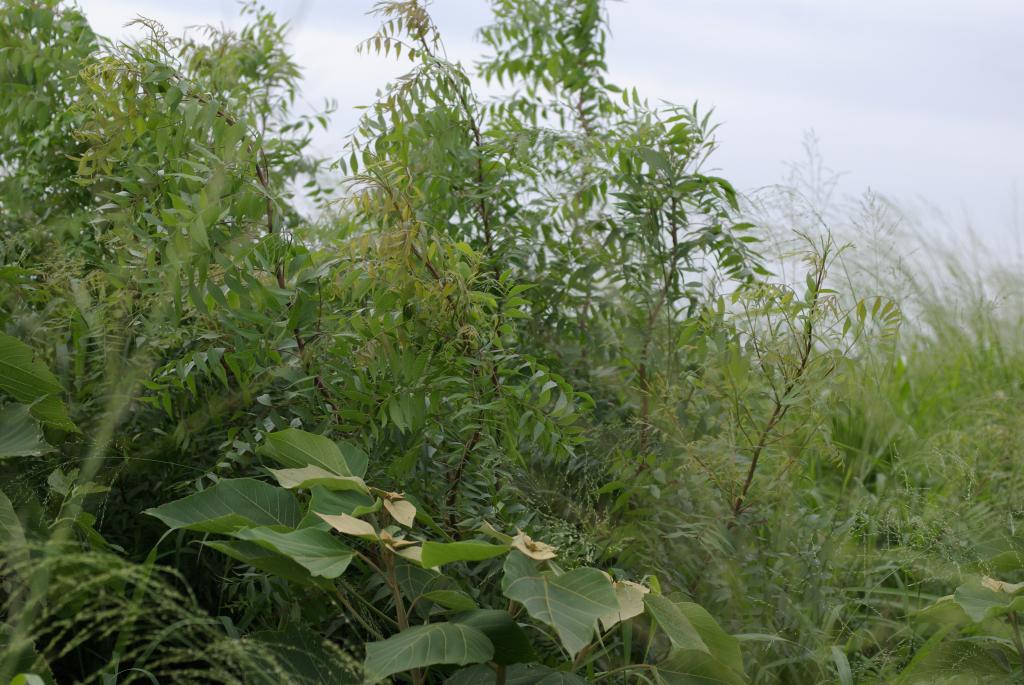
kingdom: Plantae
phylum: Tracheophyta
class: Magnoliopsida
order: Sapindales
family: Anacardiaceae
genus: Pistacia
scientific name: Pistacia chinensis
